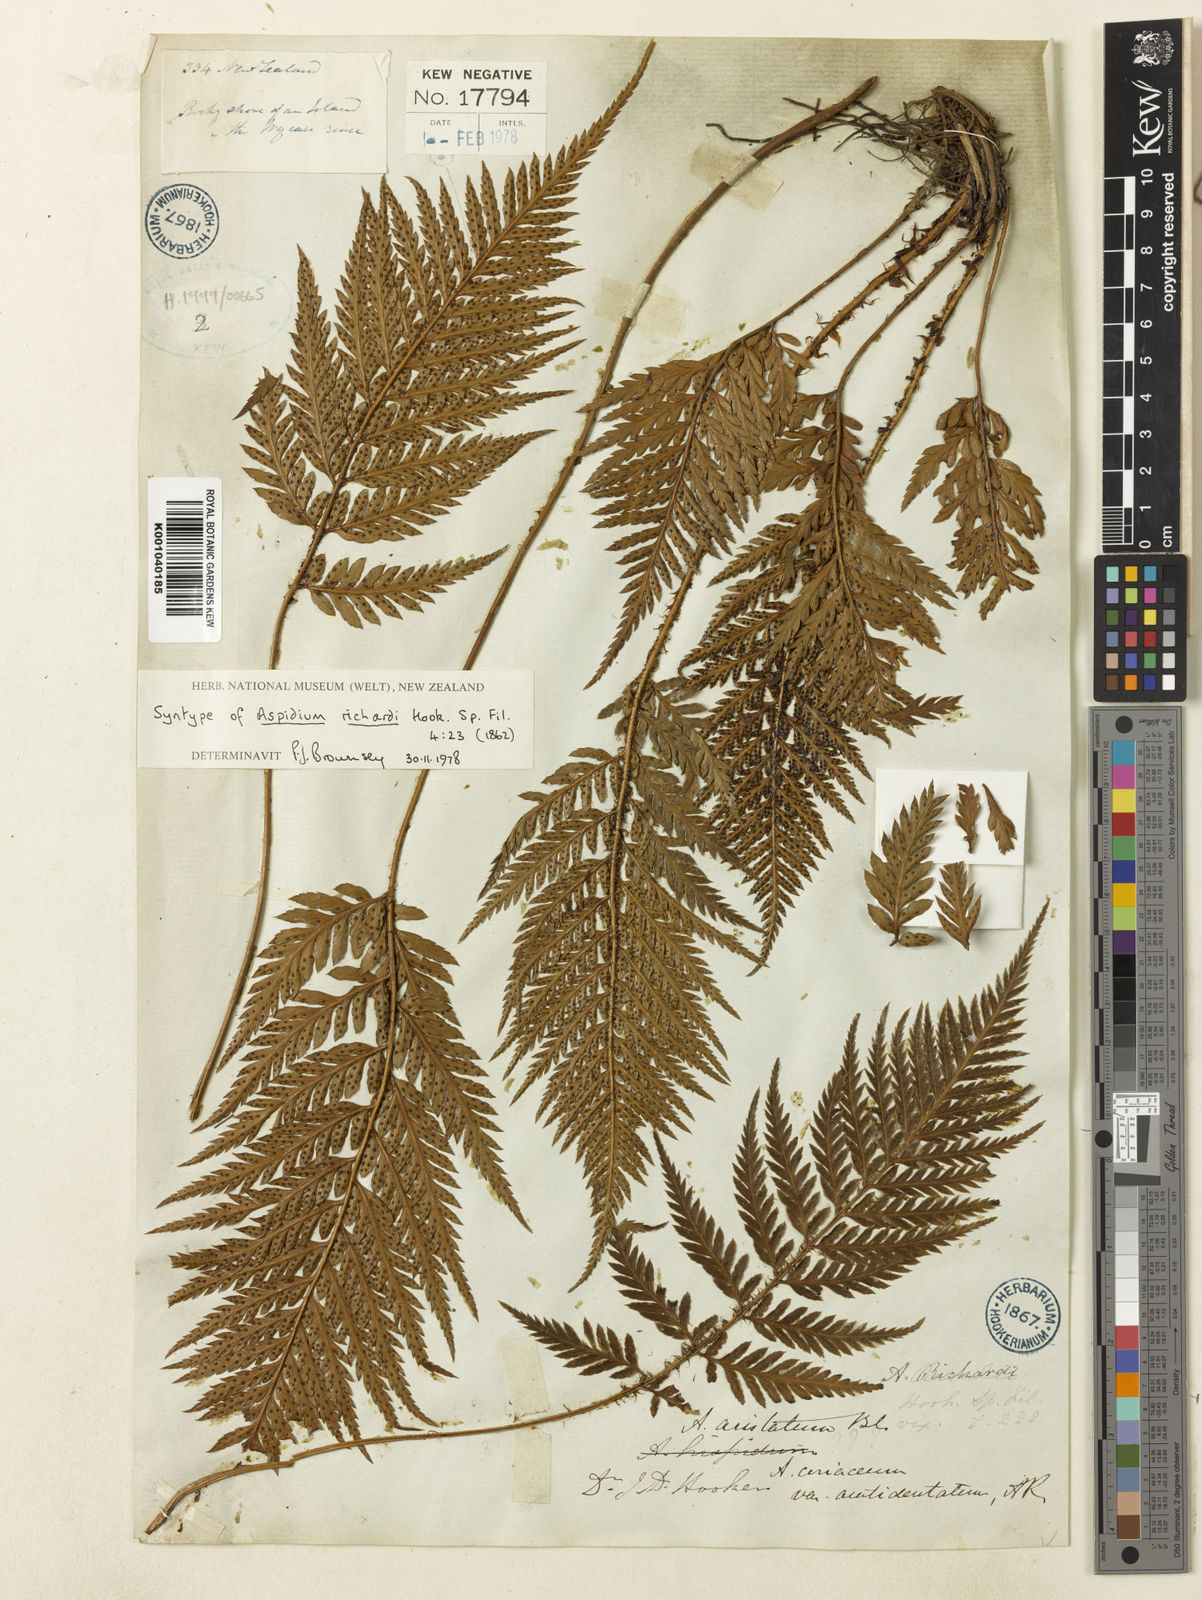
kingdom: Plantae
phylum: Tracheophyta
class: Polypodiopsida
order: Polypodiales
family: Dryopteridaceae
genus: Polystichum
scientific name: Polystichum neozelandicum
